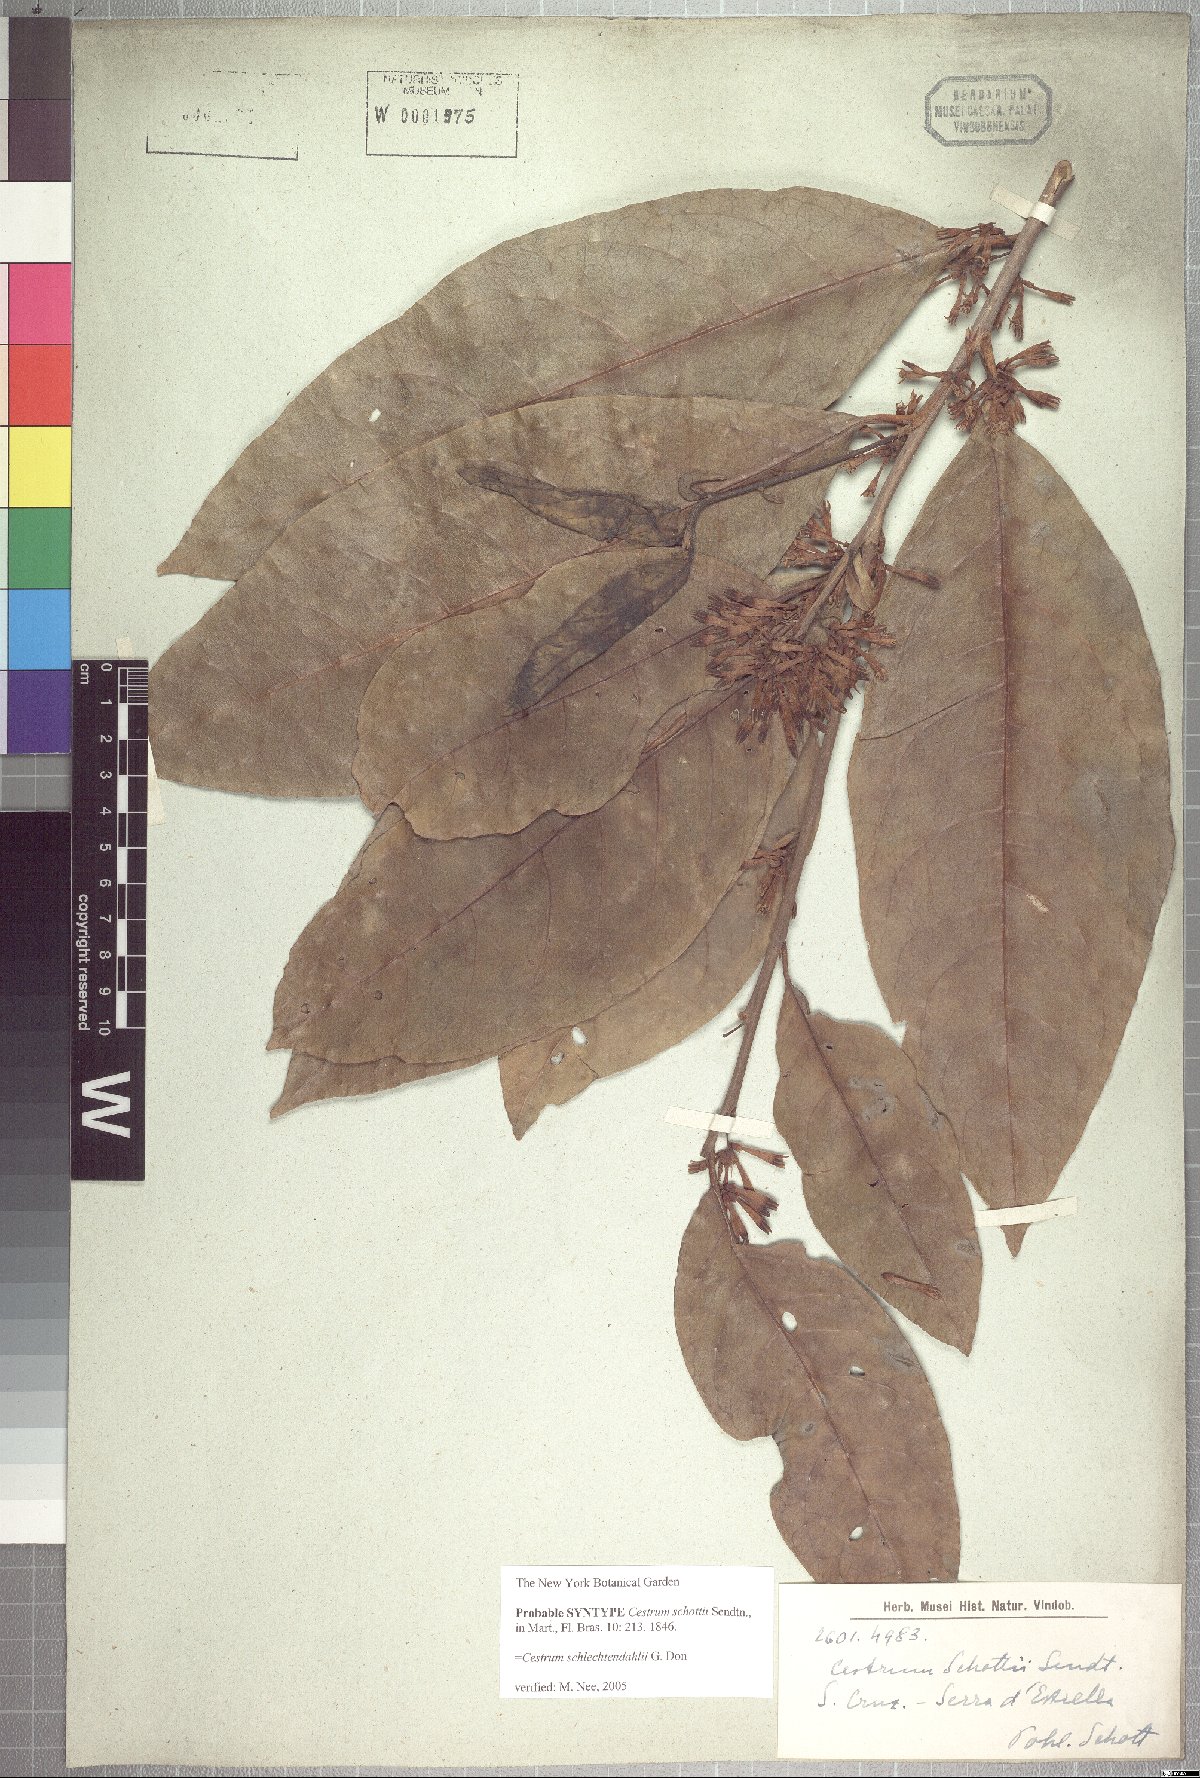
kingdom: Plantae
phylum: Tracheophyta
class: Magnoliopsida
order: Solanales
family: Solanaceae
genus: Cestrum
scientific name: Cestrum coriaceum
